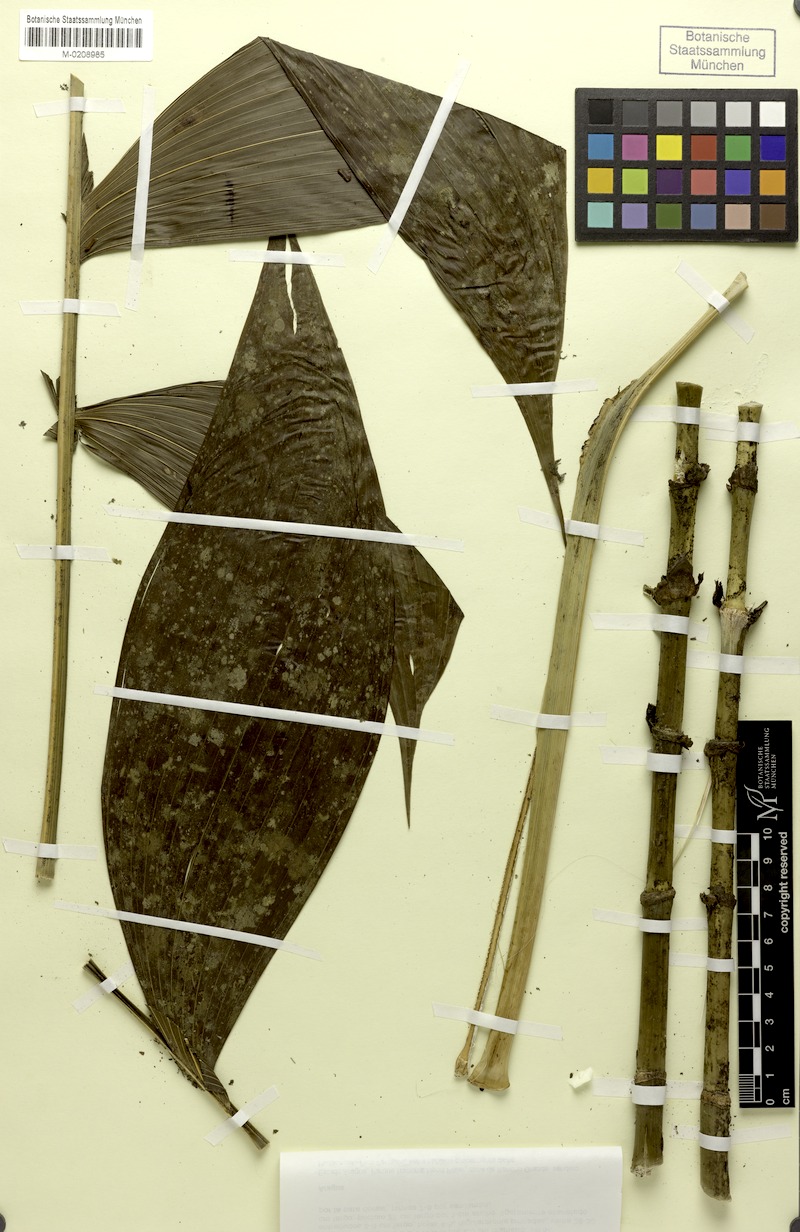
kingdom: Plantae
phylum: Tracheophyta
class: Liliopsida
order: Arecales
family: Arecaceae
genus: Chamaedorea
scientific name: Chamaedorea pinnatifrons
